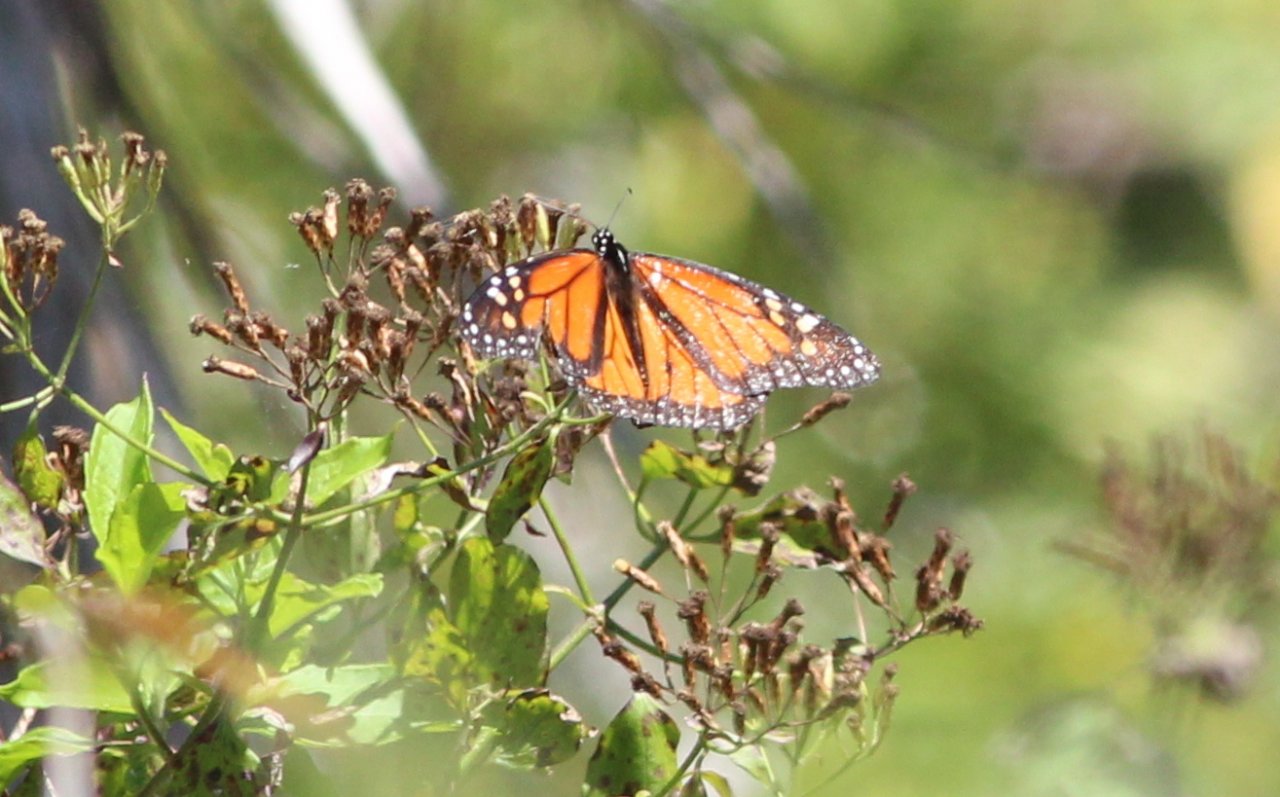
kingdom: Animalia
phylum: Arthropoda
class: Insecta
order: Lepidoptera
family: Nymphalidae
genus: Danaus
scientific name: Danaus plexippus
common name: Monarch
